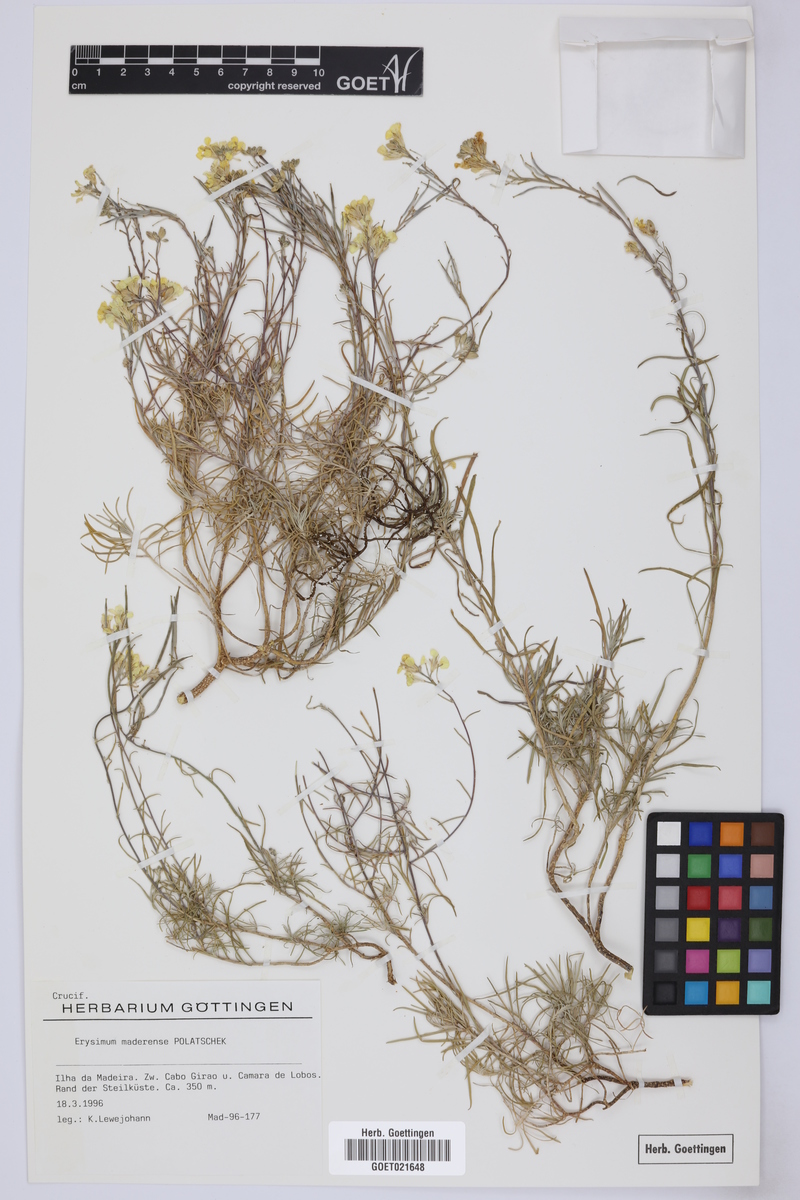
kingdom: Plantae
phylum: Tracheophyta
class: Magnoliopsida
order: Brassicales
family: Brassicaceae
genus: Erysimum
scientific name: Erysimum maderense
